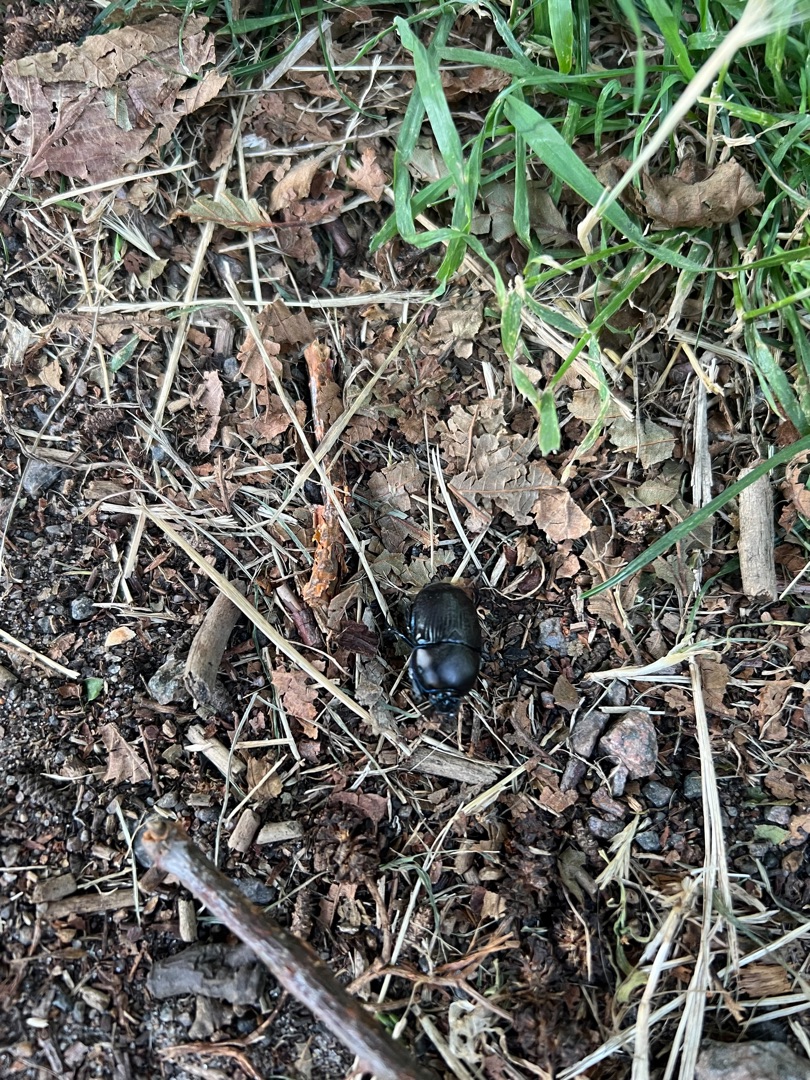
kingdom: Animalia
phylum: Arthropoda
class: Insecta
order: Coleoptera
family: Geotrupidae
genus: Anoplotrupes
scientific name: Anoplotrupes stercorosus
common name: Skovskarnbasse
